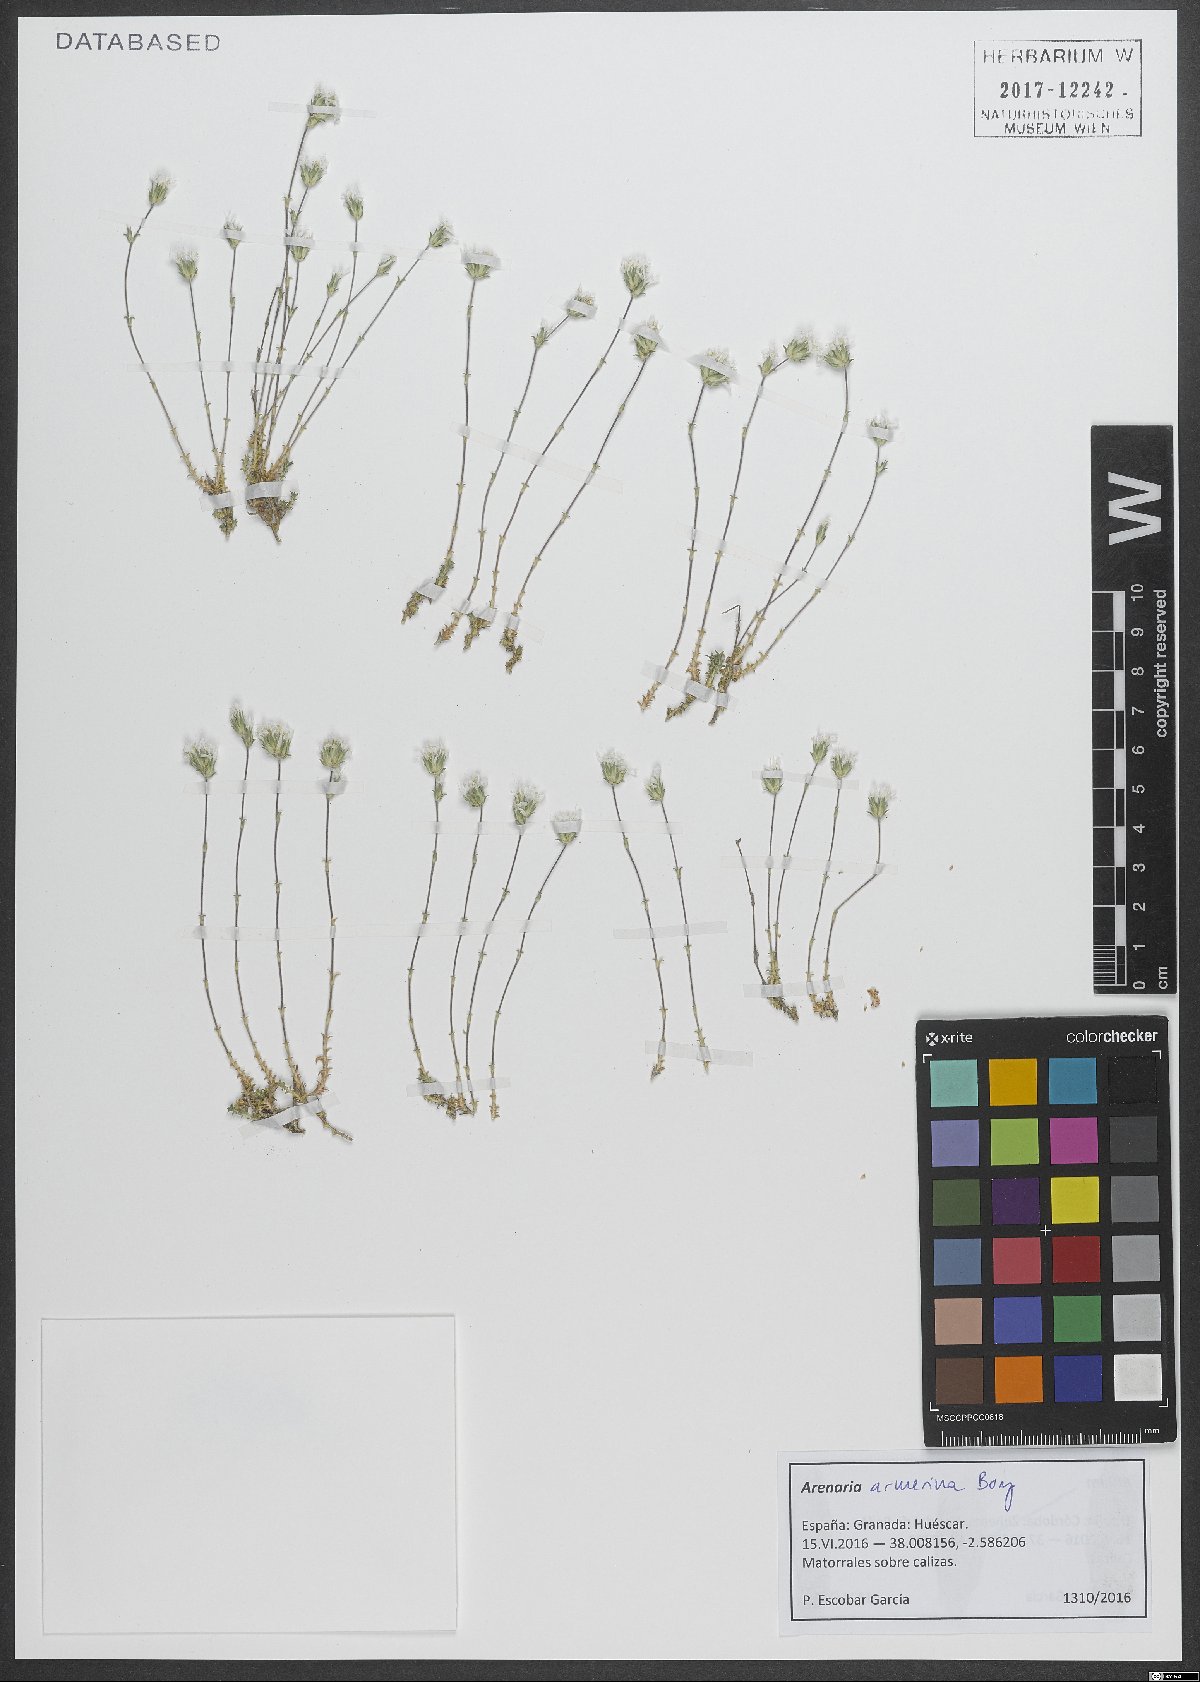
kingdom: Plantae
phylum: Tracheophyta
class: Magnoliopsida
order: Caryophyllales
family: Caryophyllaceae
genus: Arenaria
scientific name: Arenaria armerina
